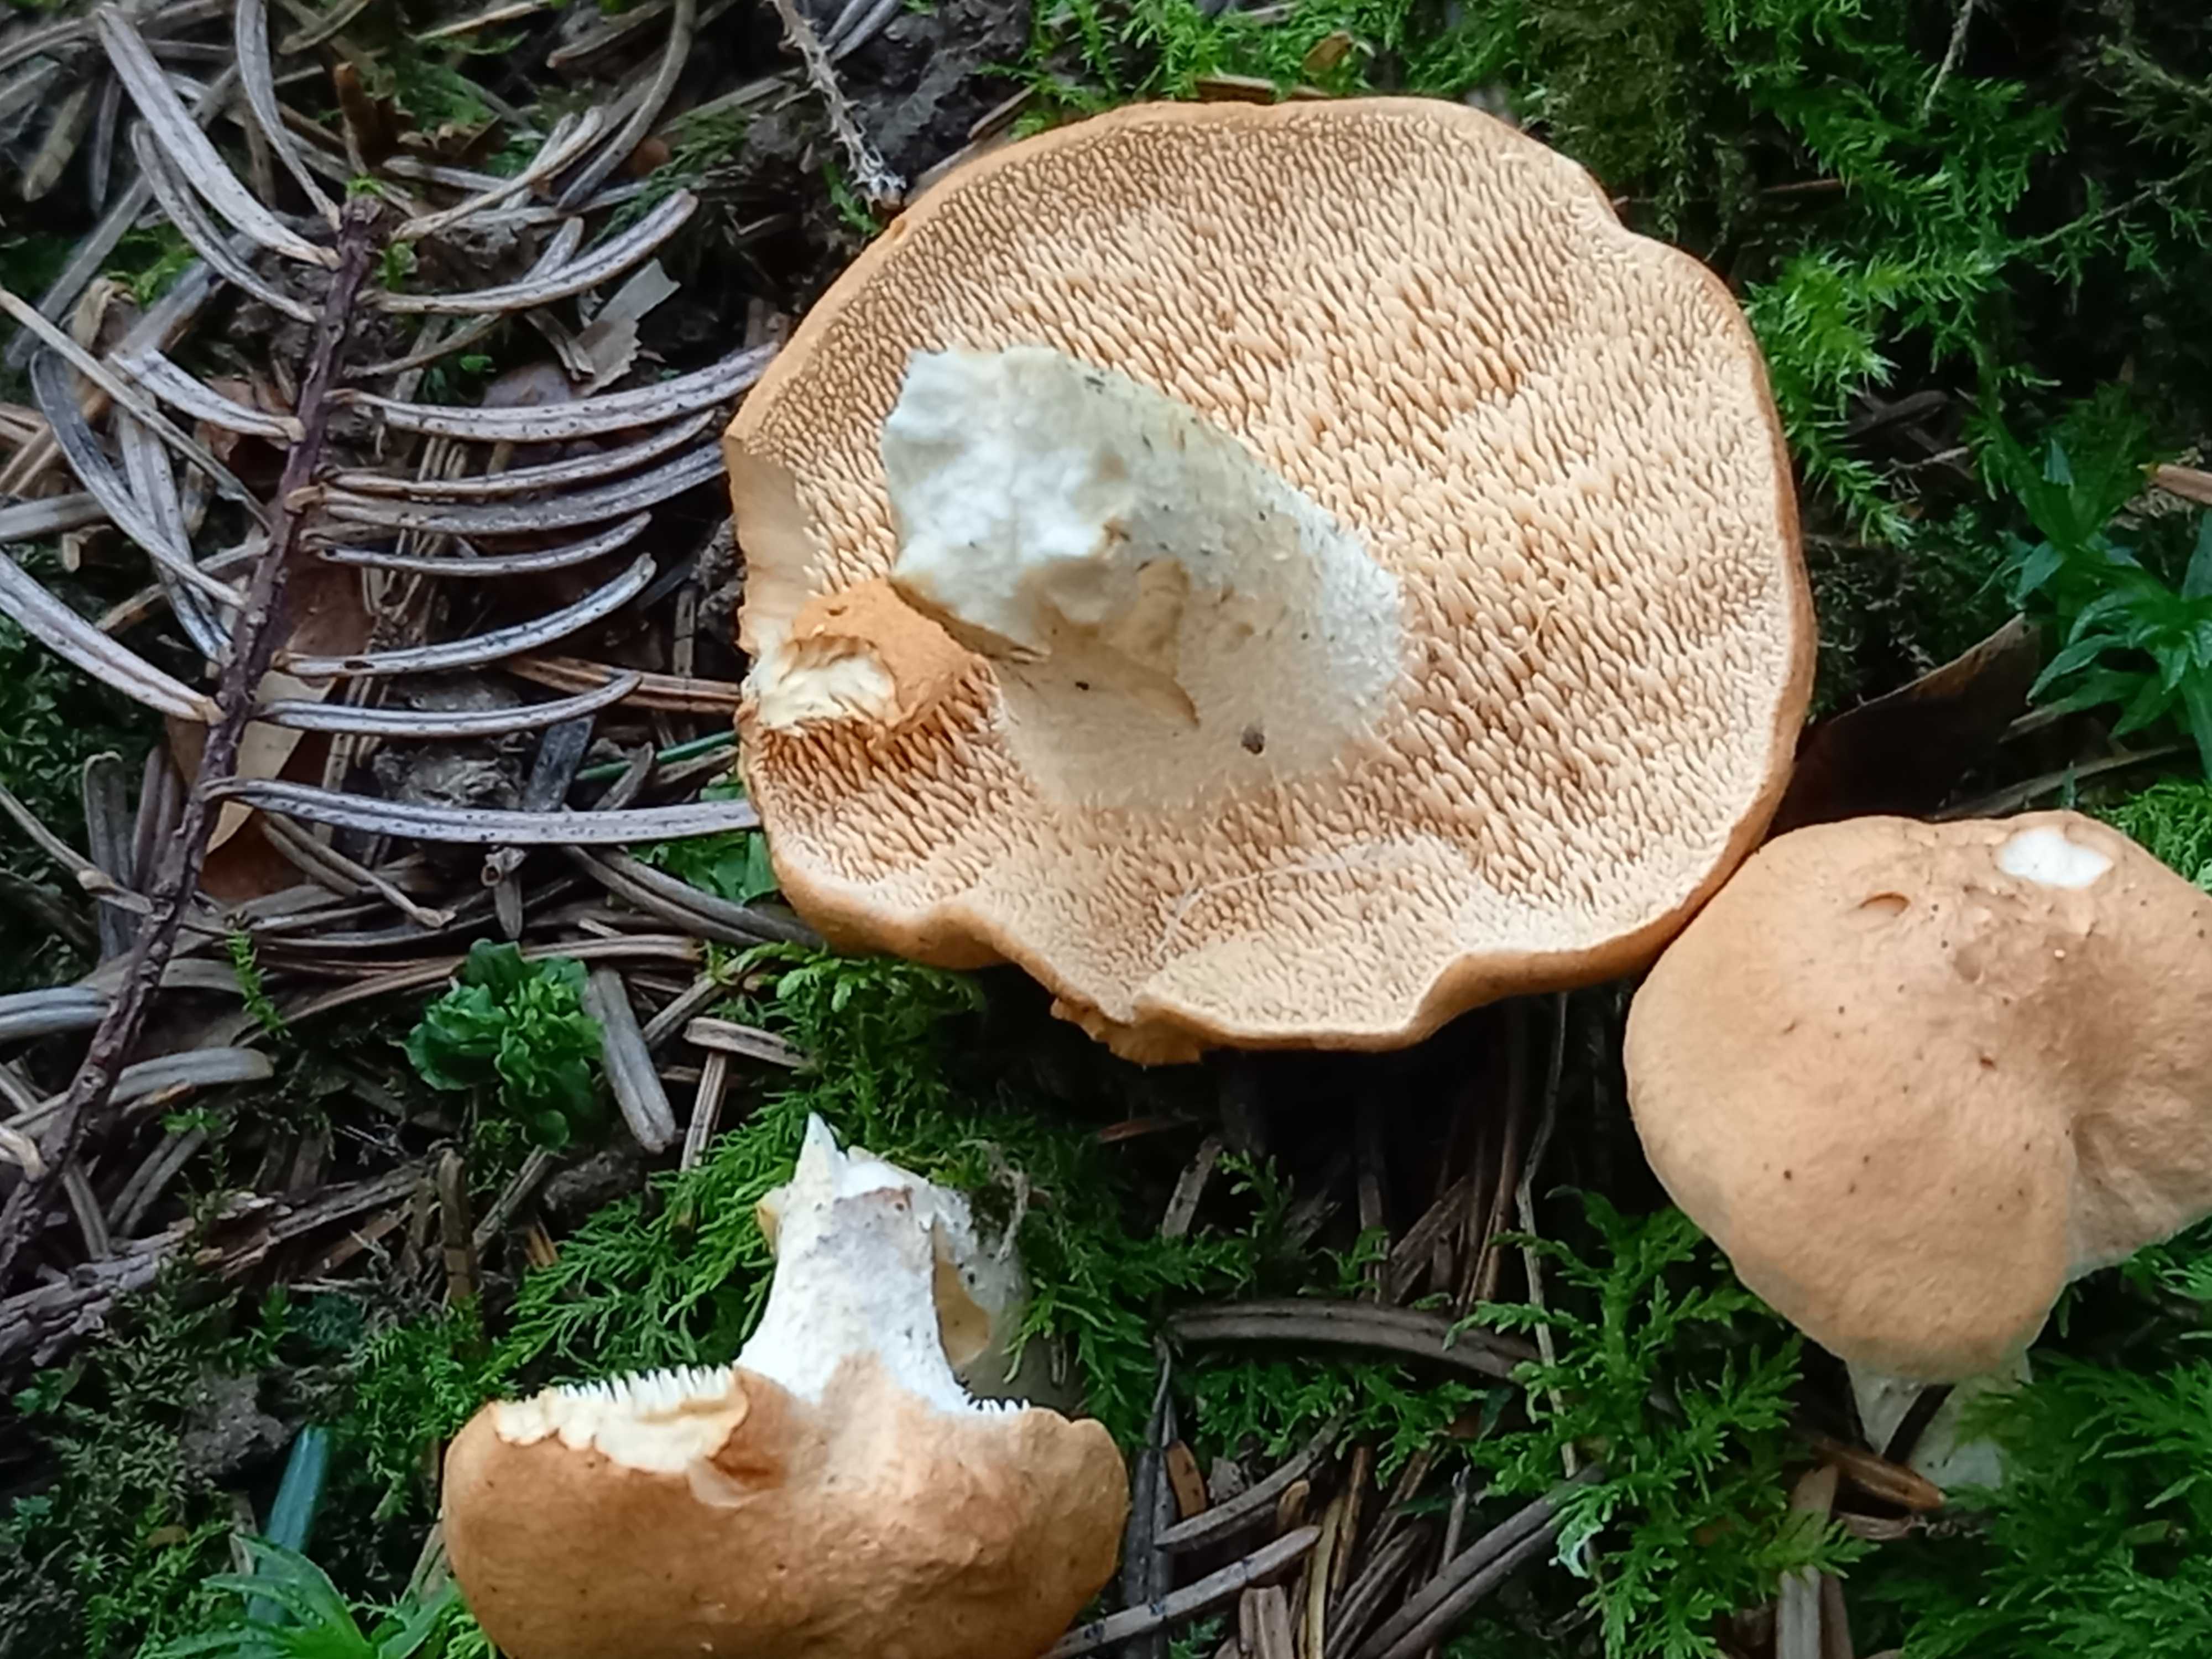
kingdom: Fungi
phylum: Basidiomycota
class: Agaricomycetes
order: Cantharellales
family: Hydnaceae
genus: Hydnum
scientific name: Hydnum
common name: pigsvamp
